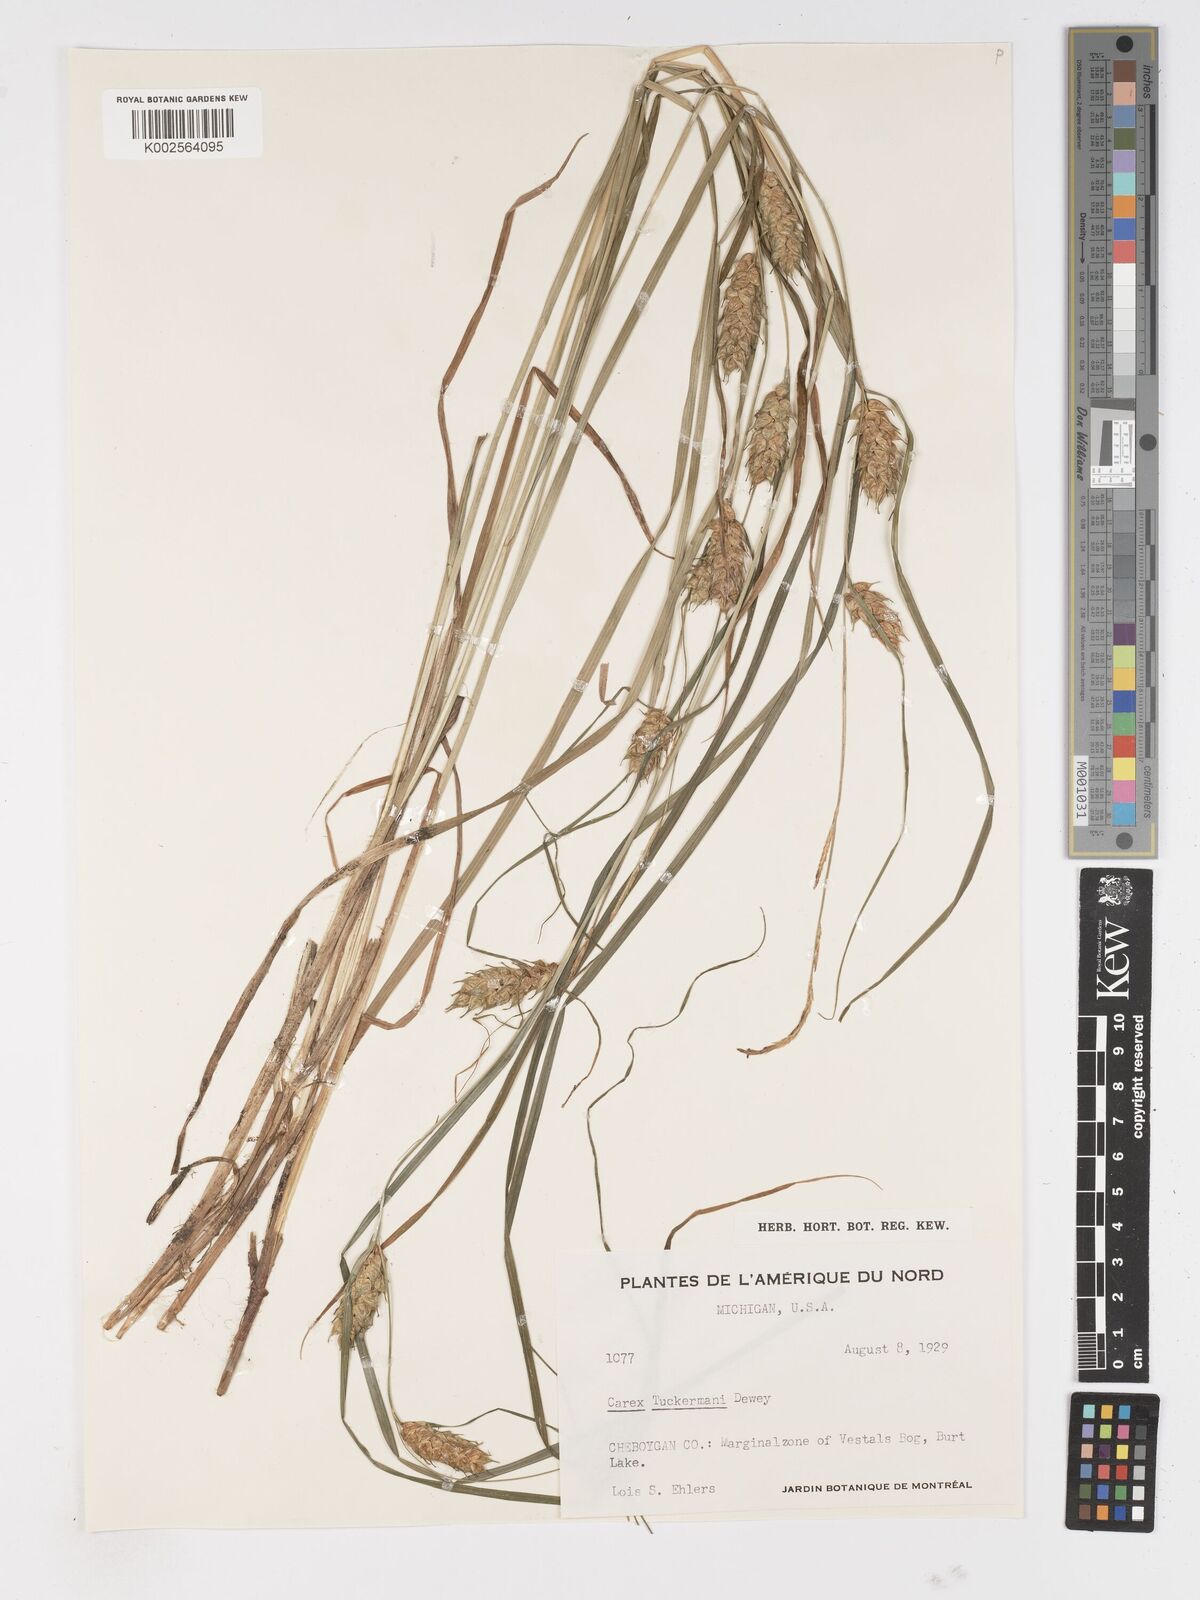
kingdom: Plantae
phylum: Tracheophyta
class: Liliopsida
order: Poales
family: Cyperaceae
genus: Carex
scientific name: Carex tuckermanii
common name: Tuckerman's sedge
